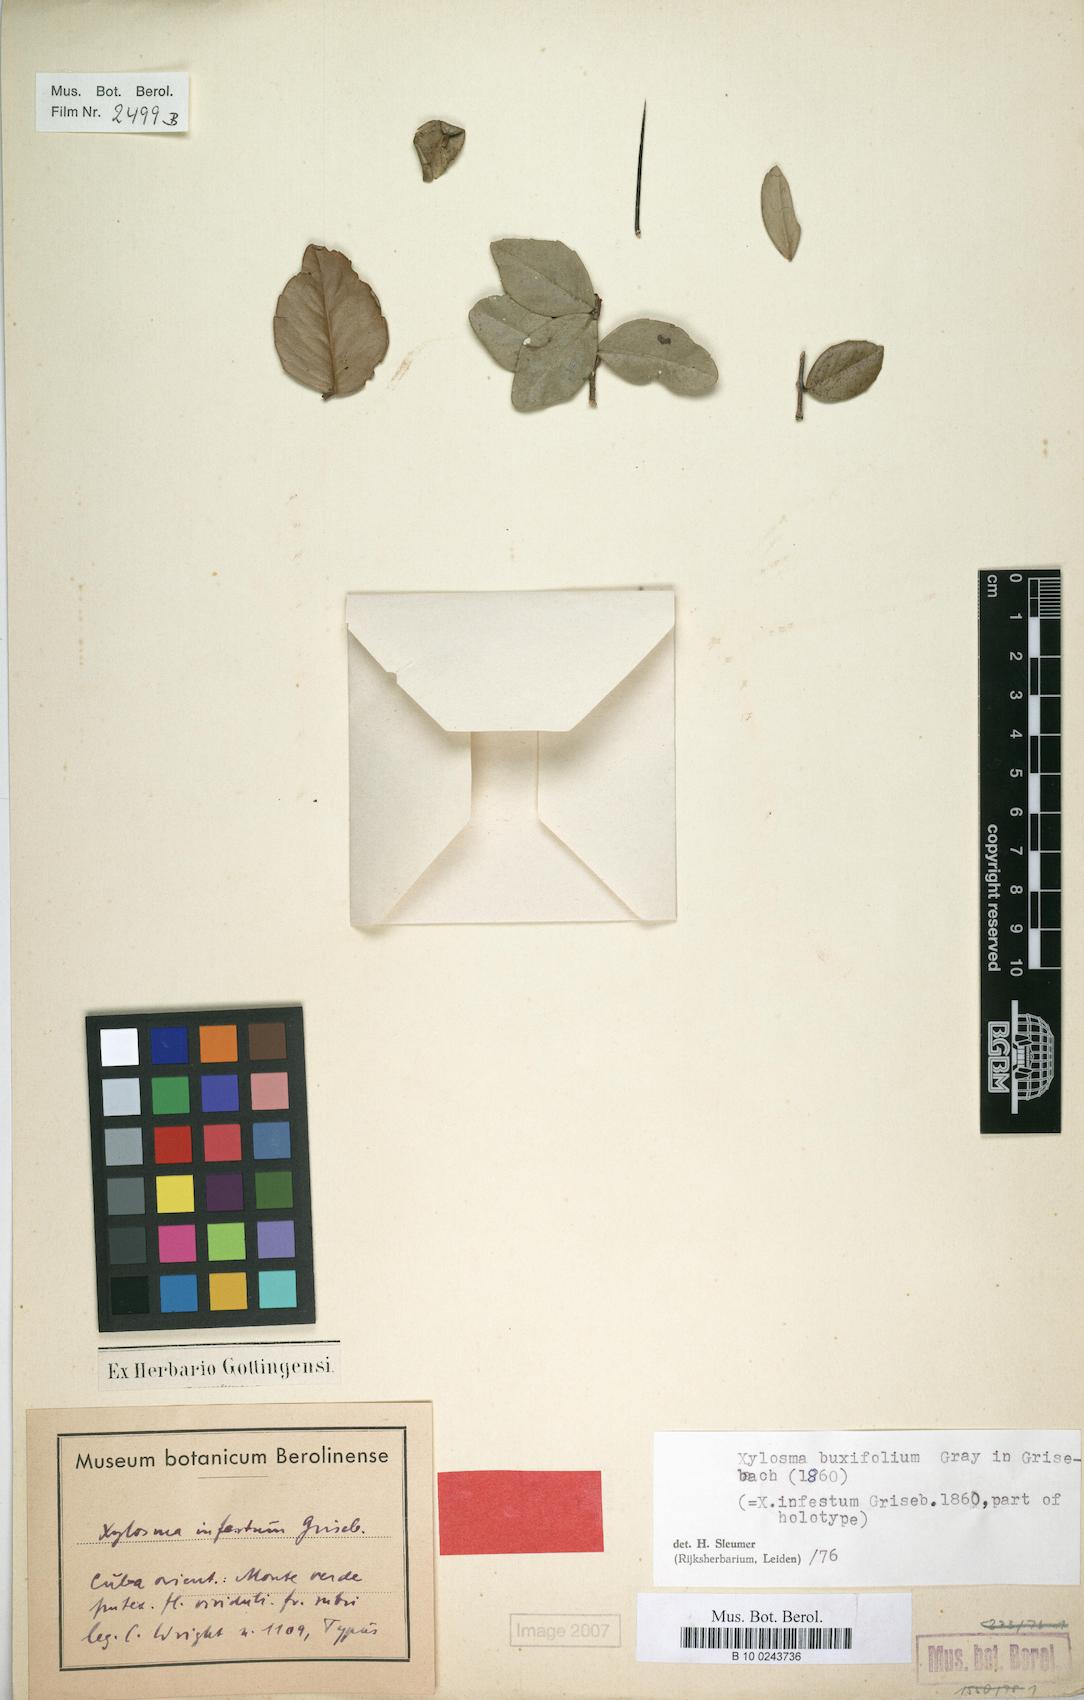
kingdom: Plantae
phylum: Tracheophyta
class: Magnoliopsida
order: Malpighiales
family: Salicaceae
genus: Xylosma
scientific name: Xylosma buxifolia
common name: Cockspur
